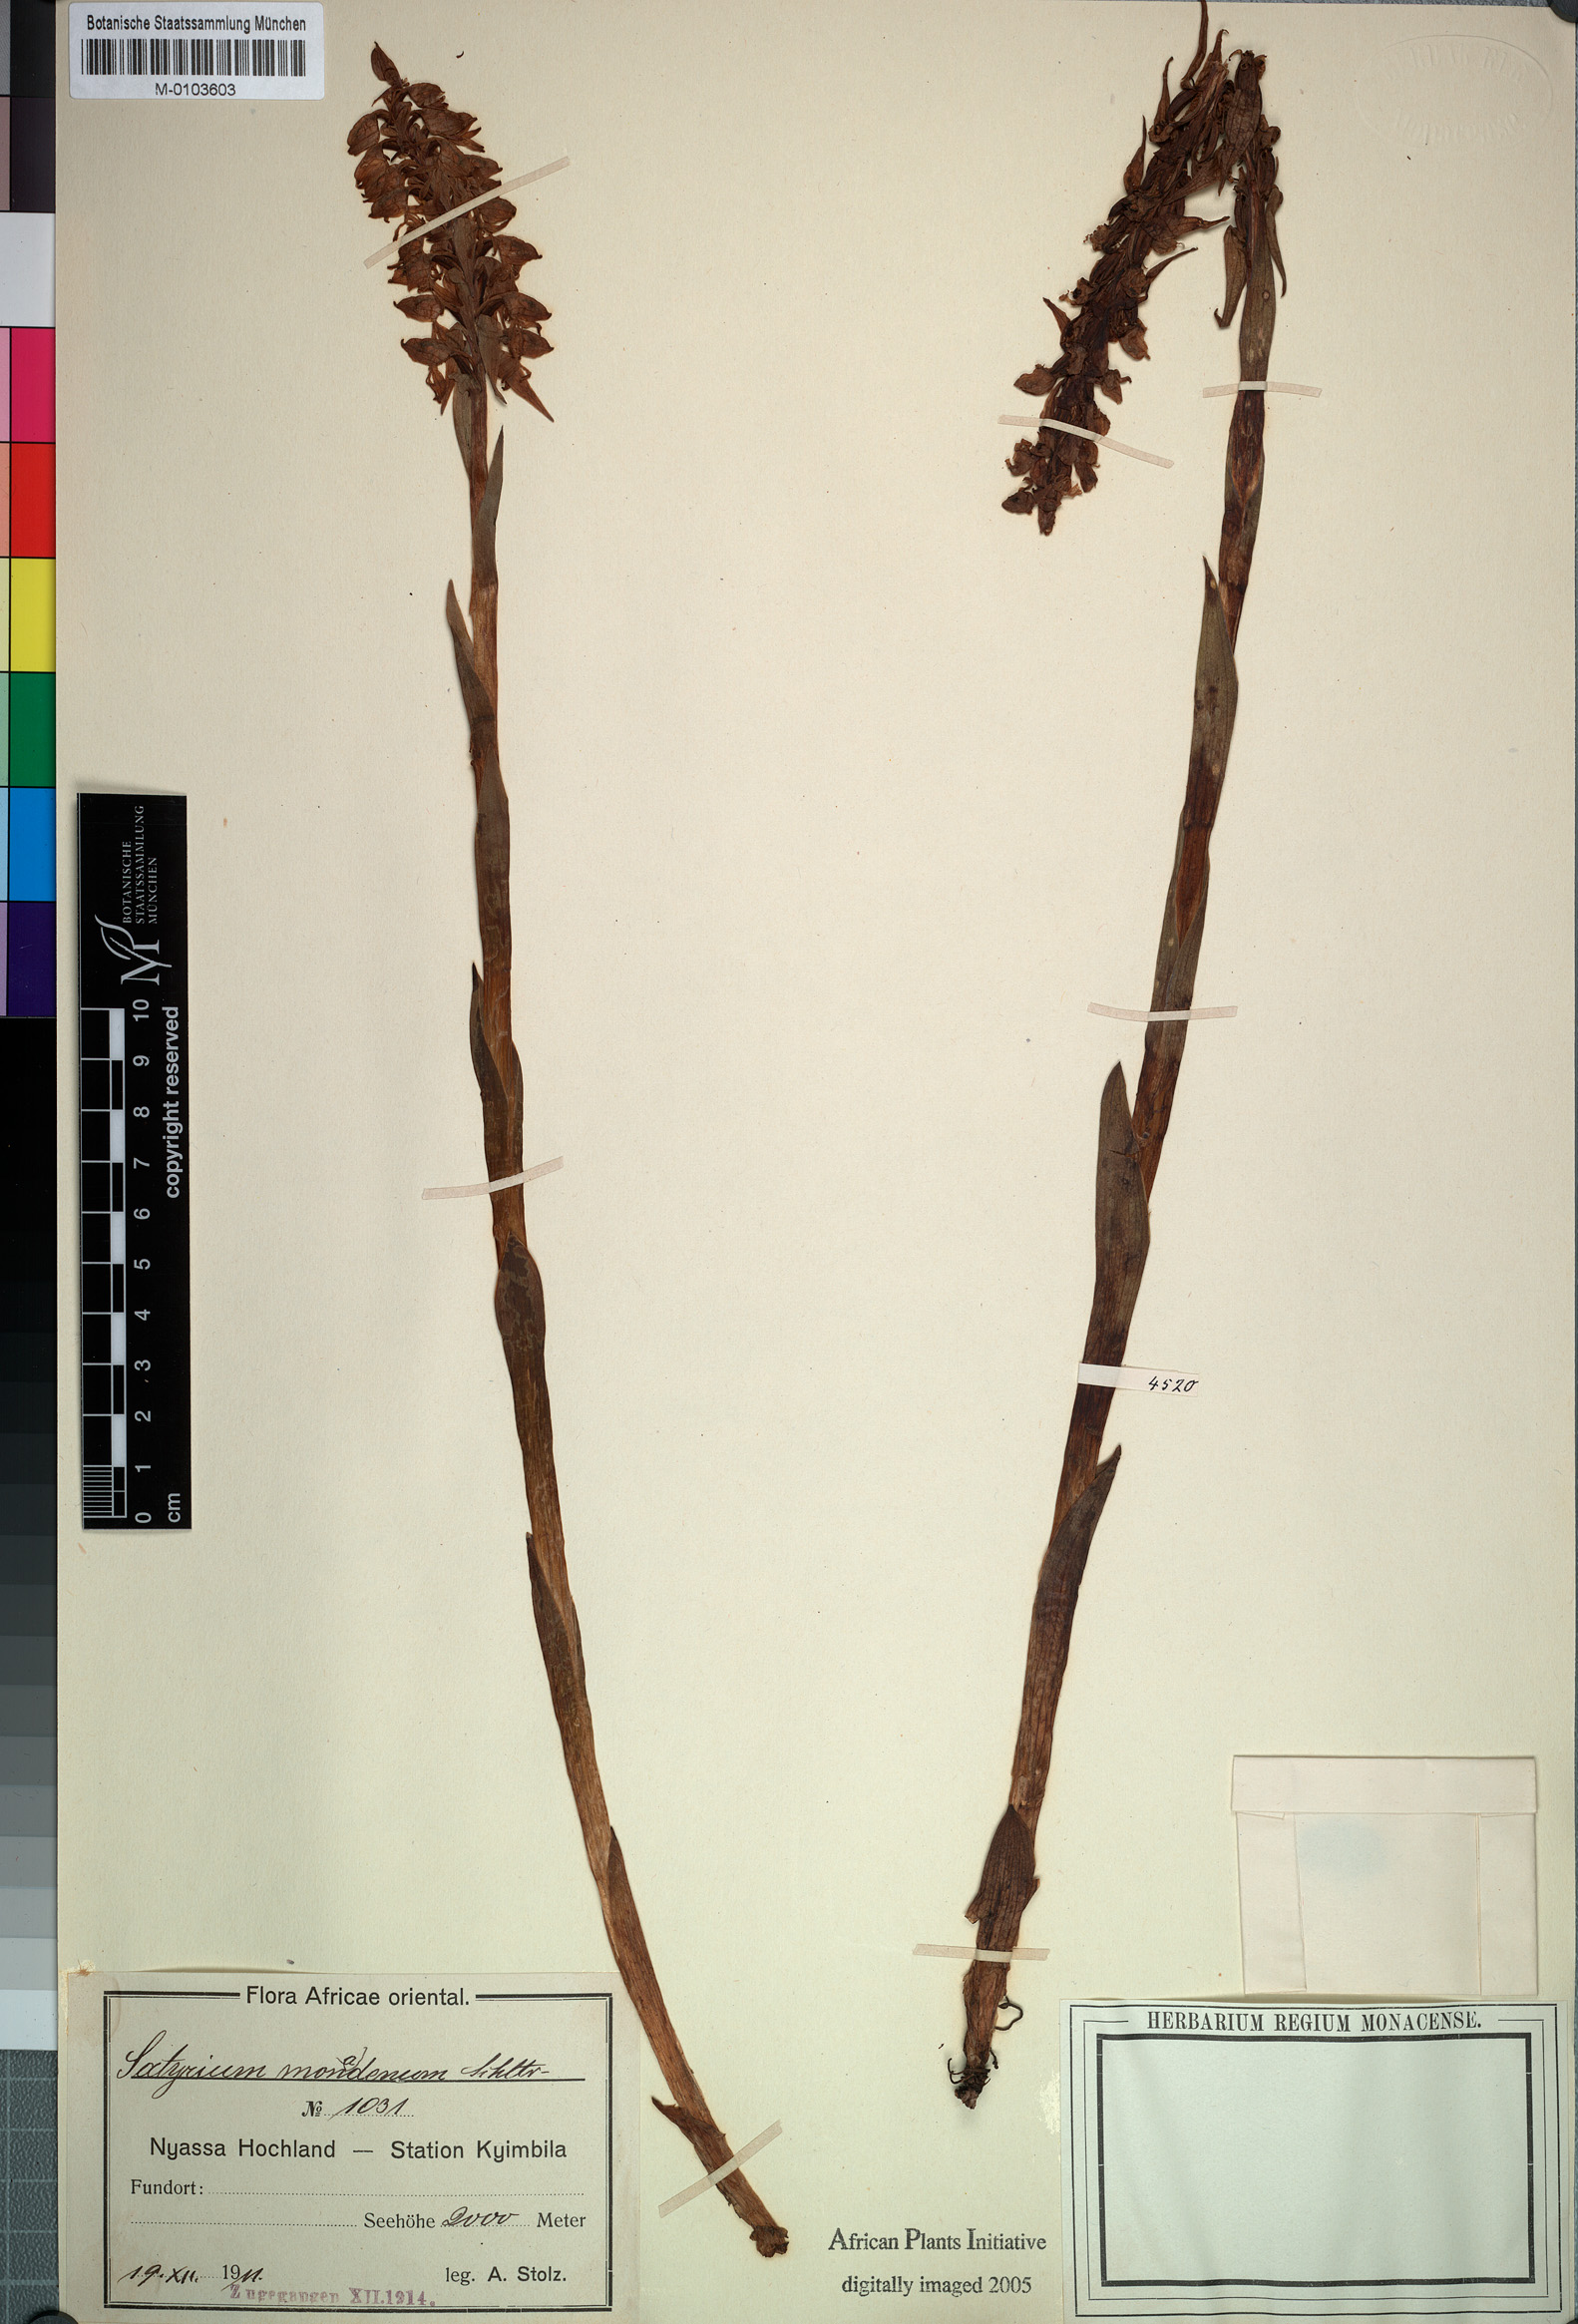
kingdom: Plantae
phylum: Tracheophyta
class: Liliopsida
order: Asparagales
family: Orchidaceae
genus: Satyrium
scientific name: Satyrium monadenum
